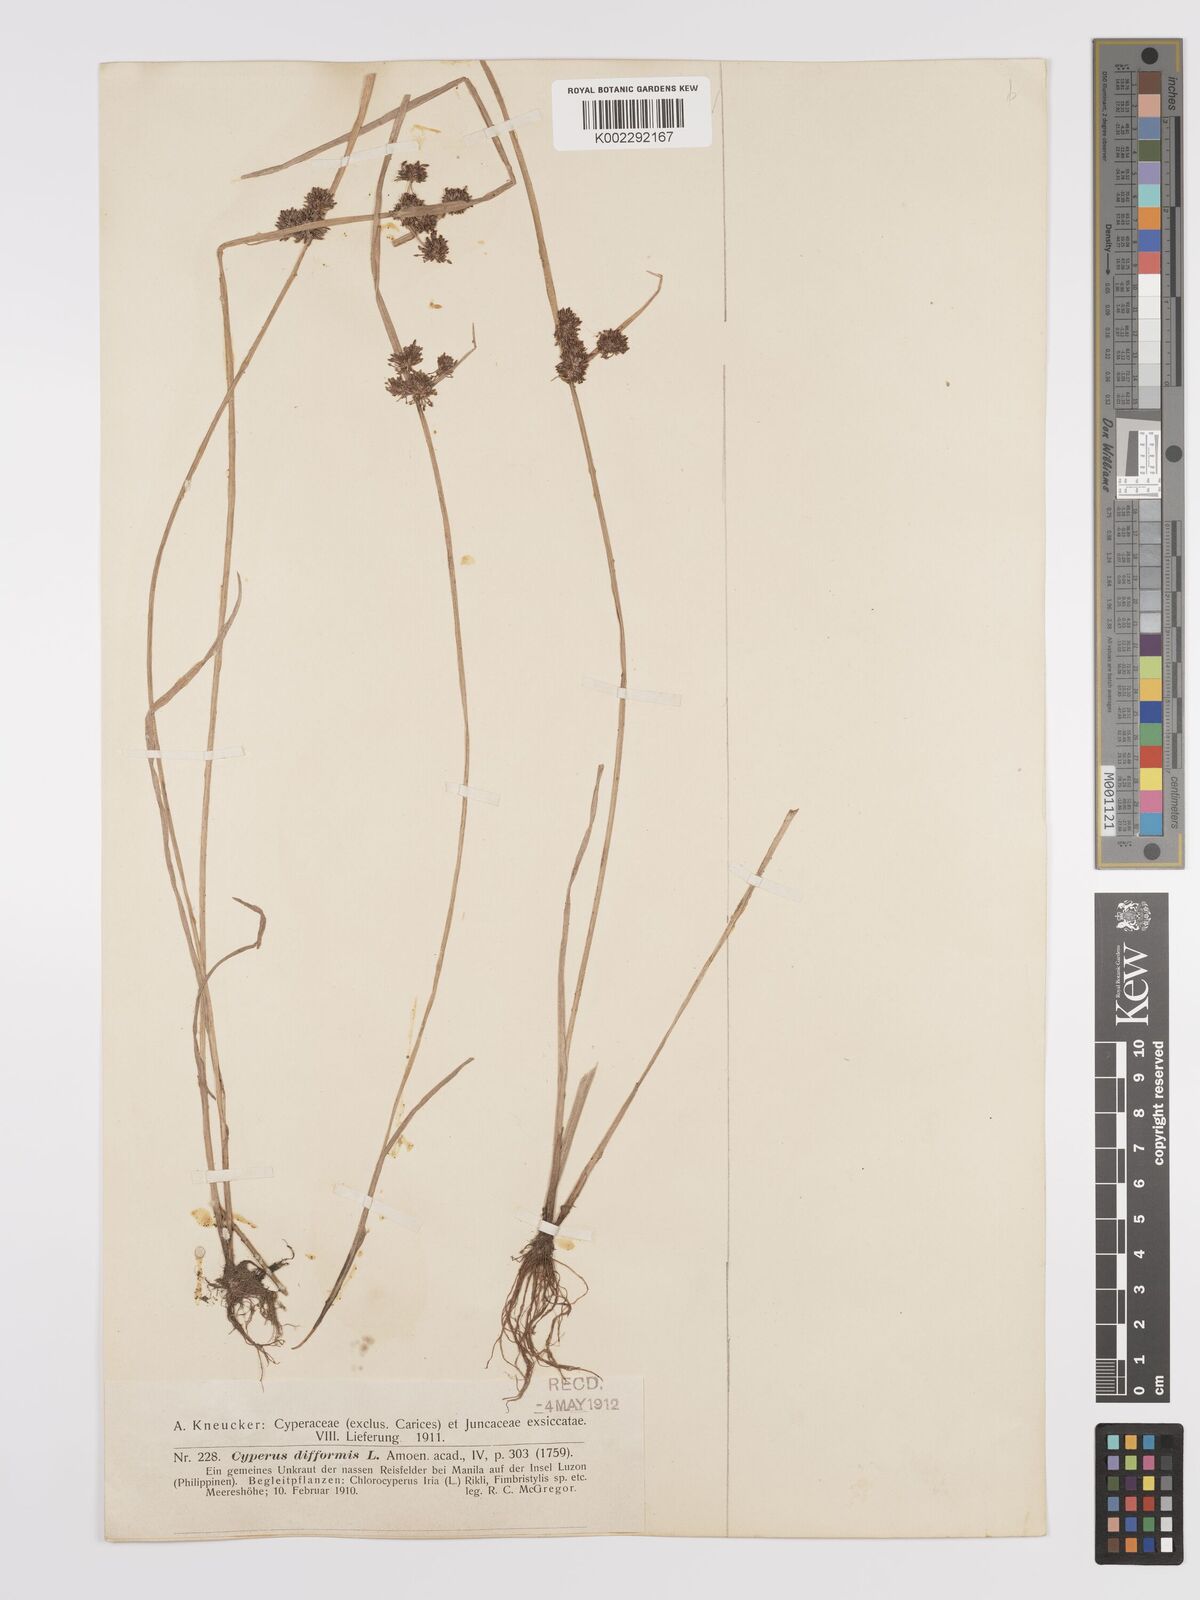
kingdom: Plantae
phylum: Tracheophyta
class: Liliopsida
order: Poales
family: Cyperaceae
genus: Cyperus
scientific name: Cyperus difformis
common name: Variable flatsedge
